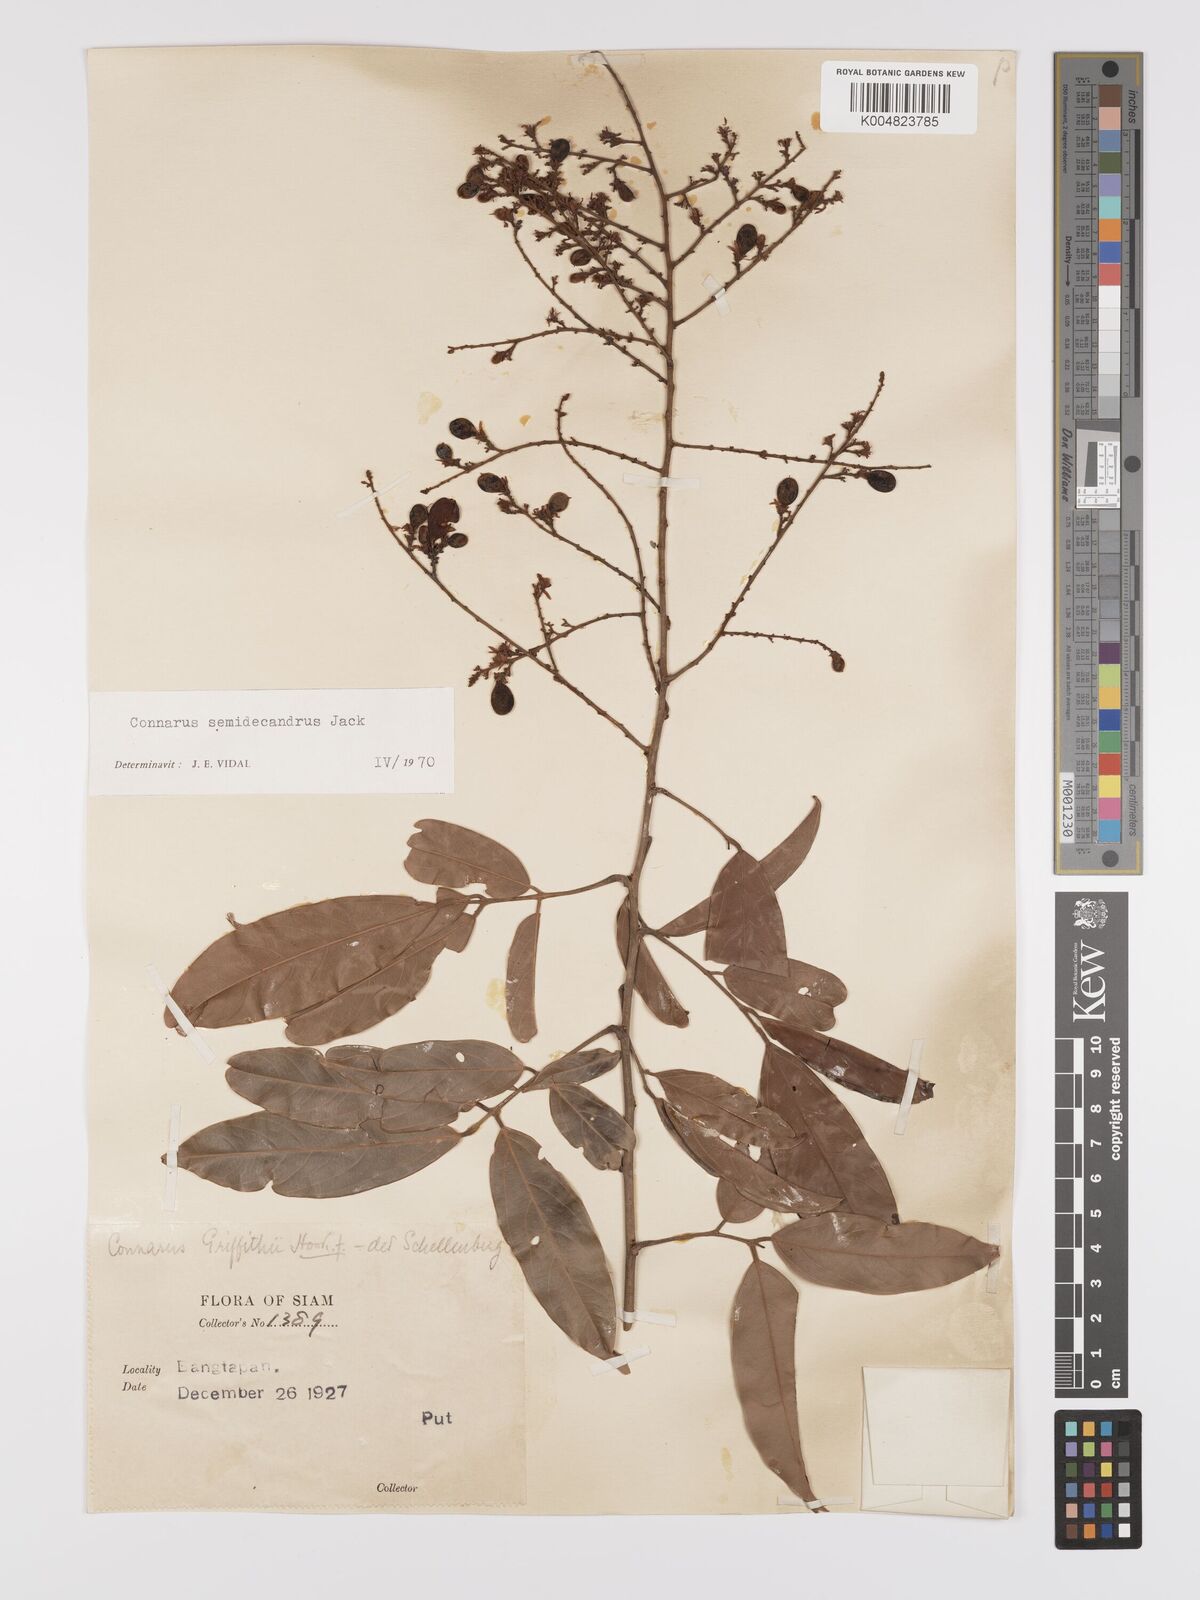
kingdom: Plantae
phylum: Tracheophyta
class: Magnoliopsida
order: Oxalidales
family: Connaraceae
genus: Connarus
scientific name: Connarus semidecandrus
